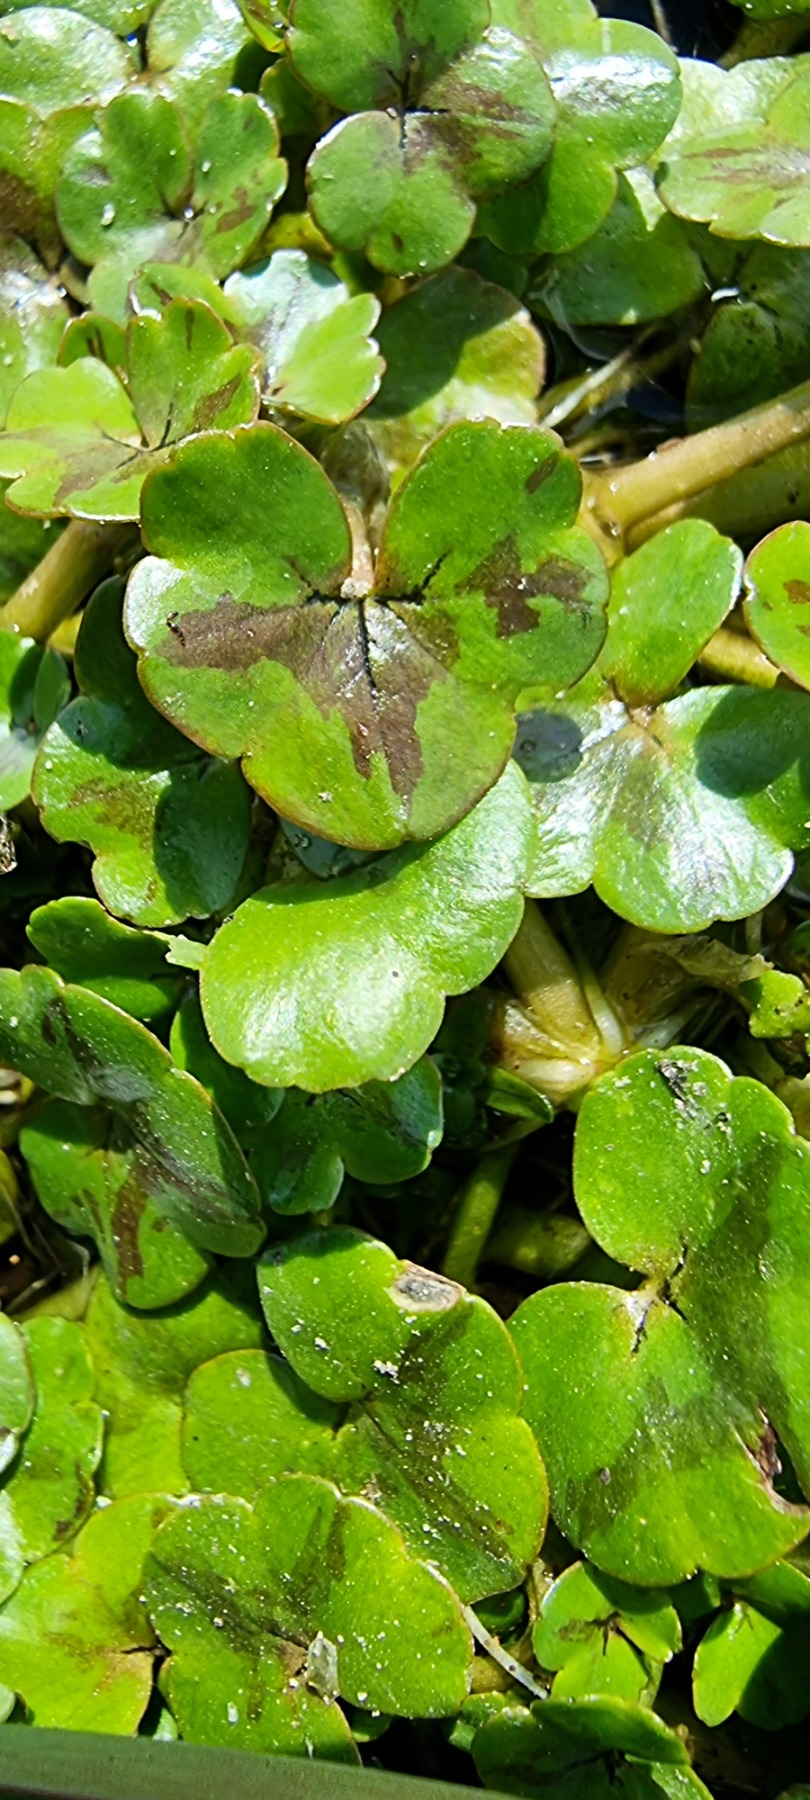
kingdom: Plantae
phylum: Tracheophyta
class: Magnoliopsida
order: Ranunculales
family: Ranunculaceae
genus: Ranunculus
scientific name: Ranunculus hederaceus
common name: Vedbend-vandranunkel
